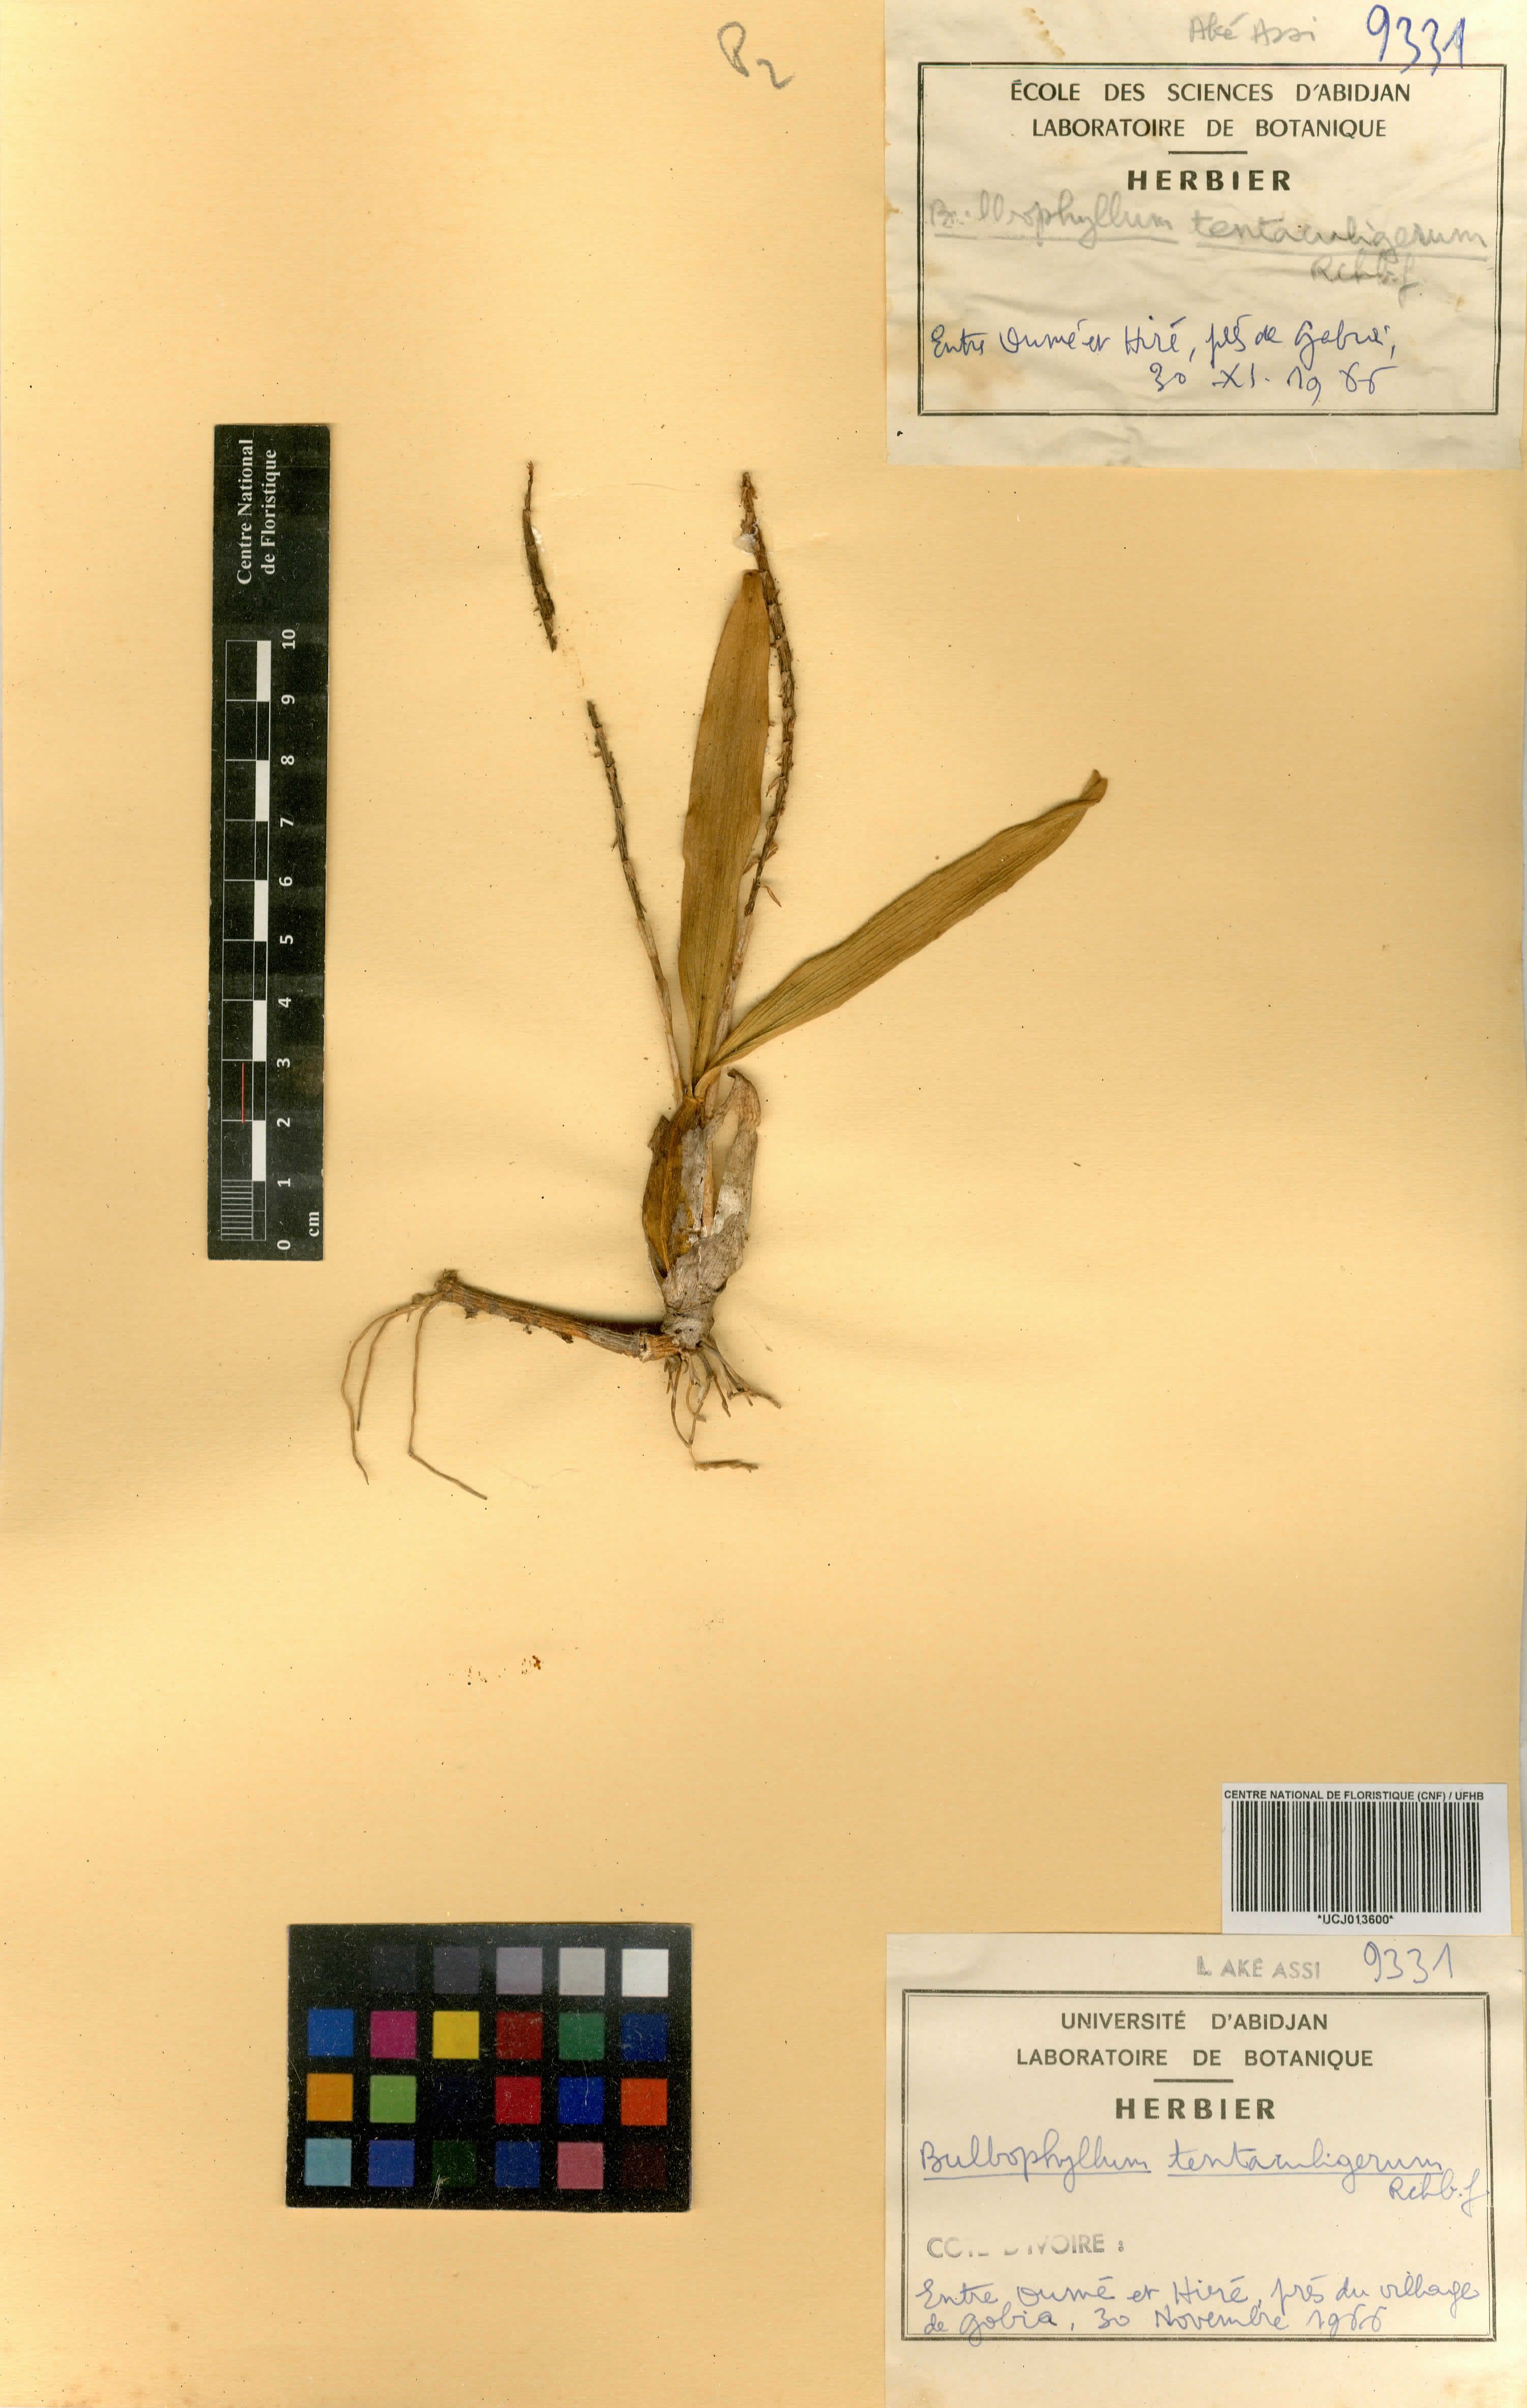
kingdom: Plantae
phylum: Tracheophyta
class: Liliopsida
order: Asparagales
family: Orchidaceae
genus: Bulbophyllum
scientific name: Bulbophyllum sandersonii
